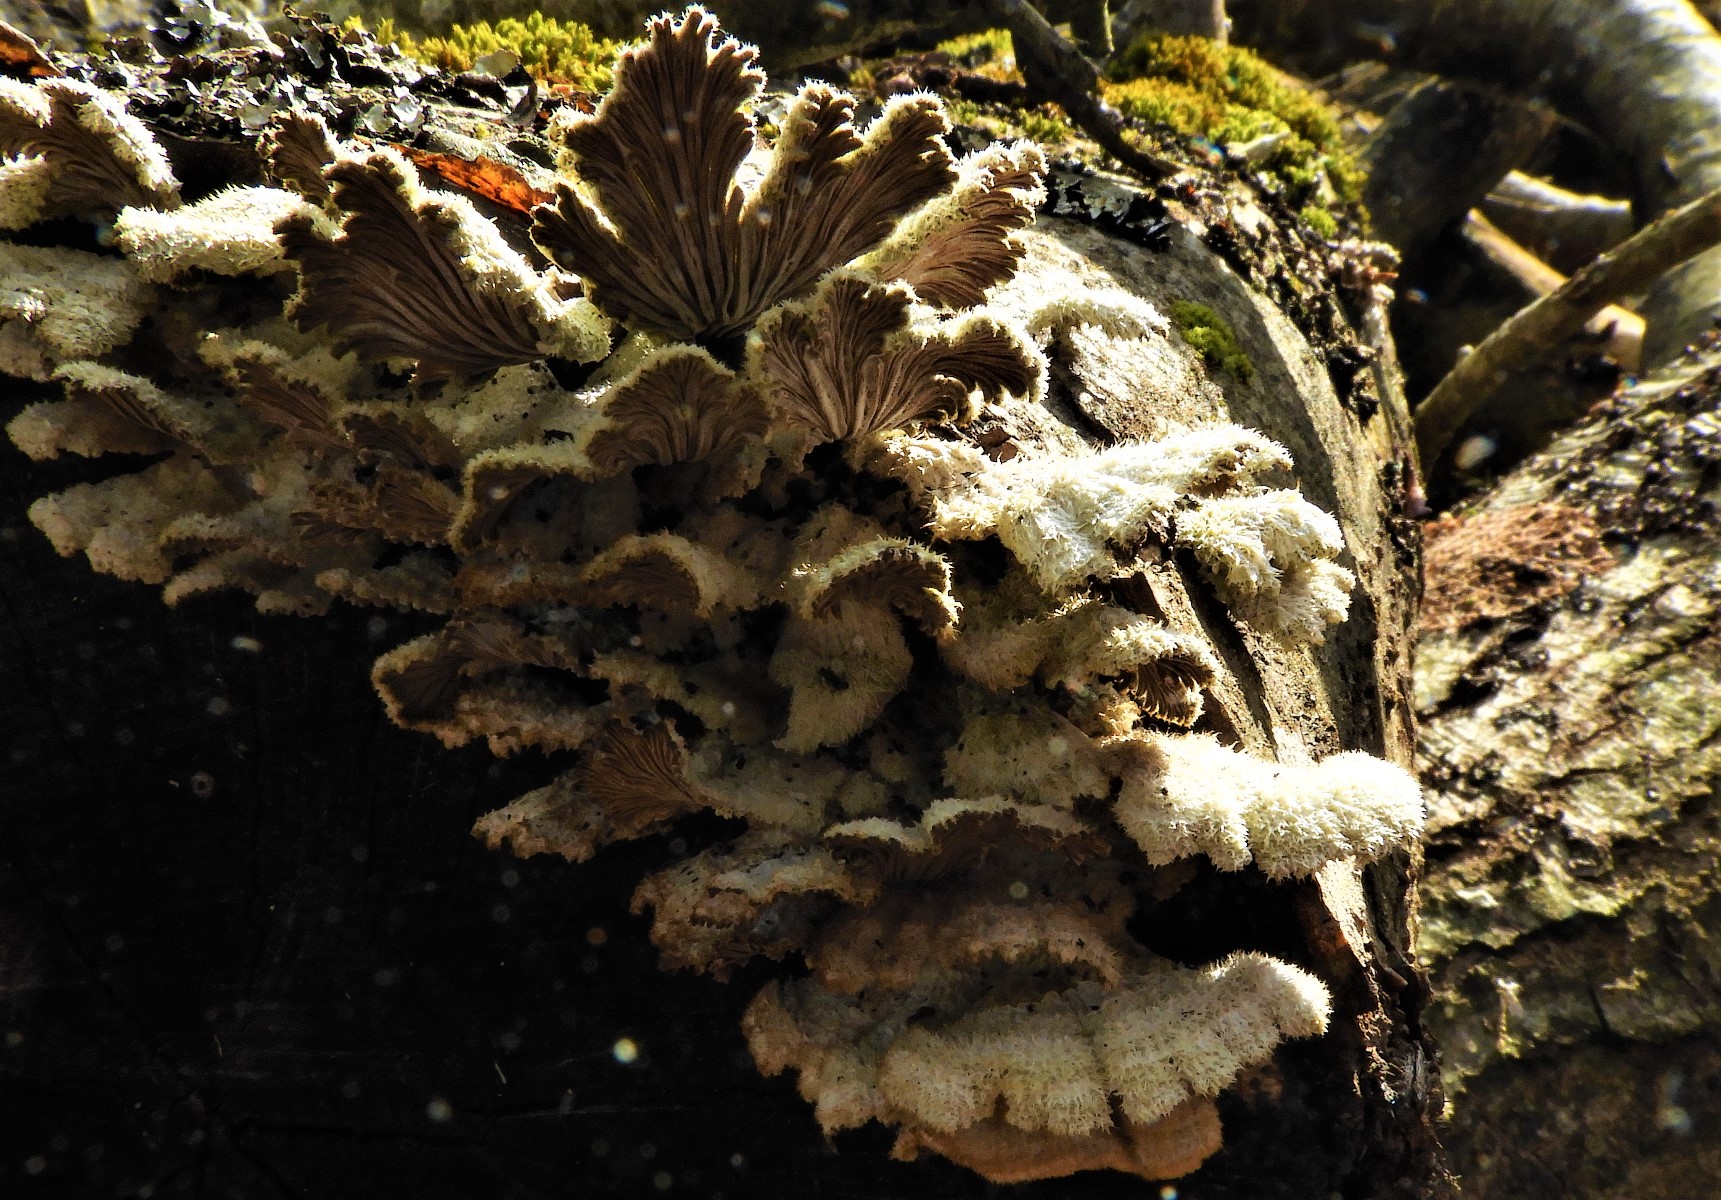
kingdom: Fungi
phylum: Basidiomycota
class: Agaricomycetes
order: Agaricales
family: Schizophyllaceae
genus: Schizophyllum
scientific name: Schizophyllum commune
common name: kløvblad
